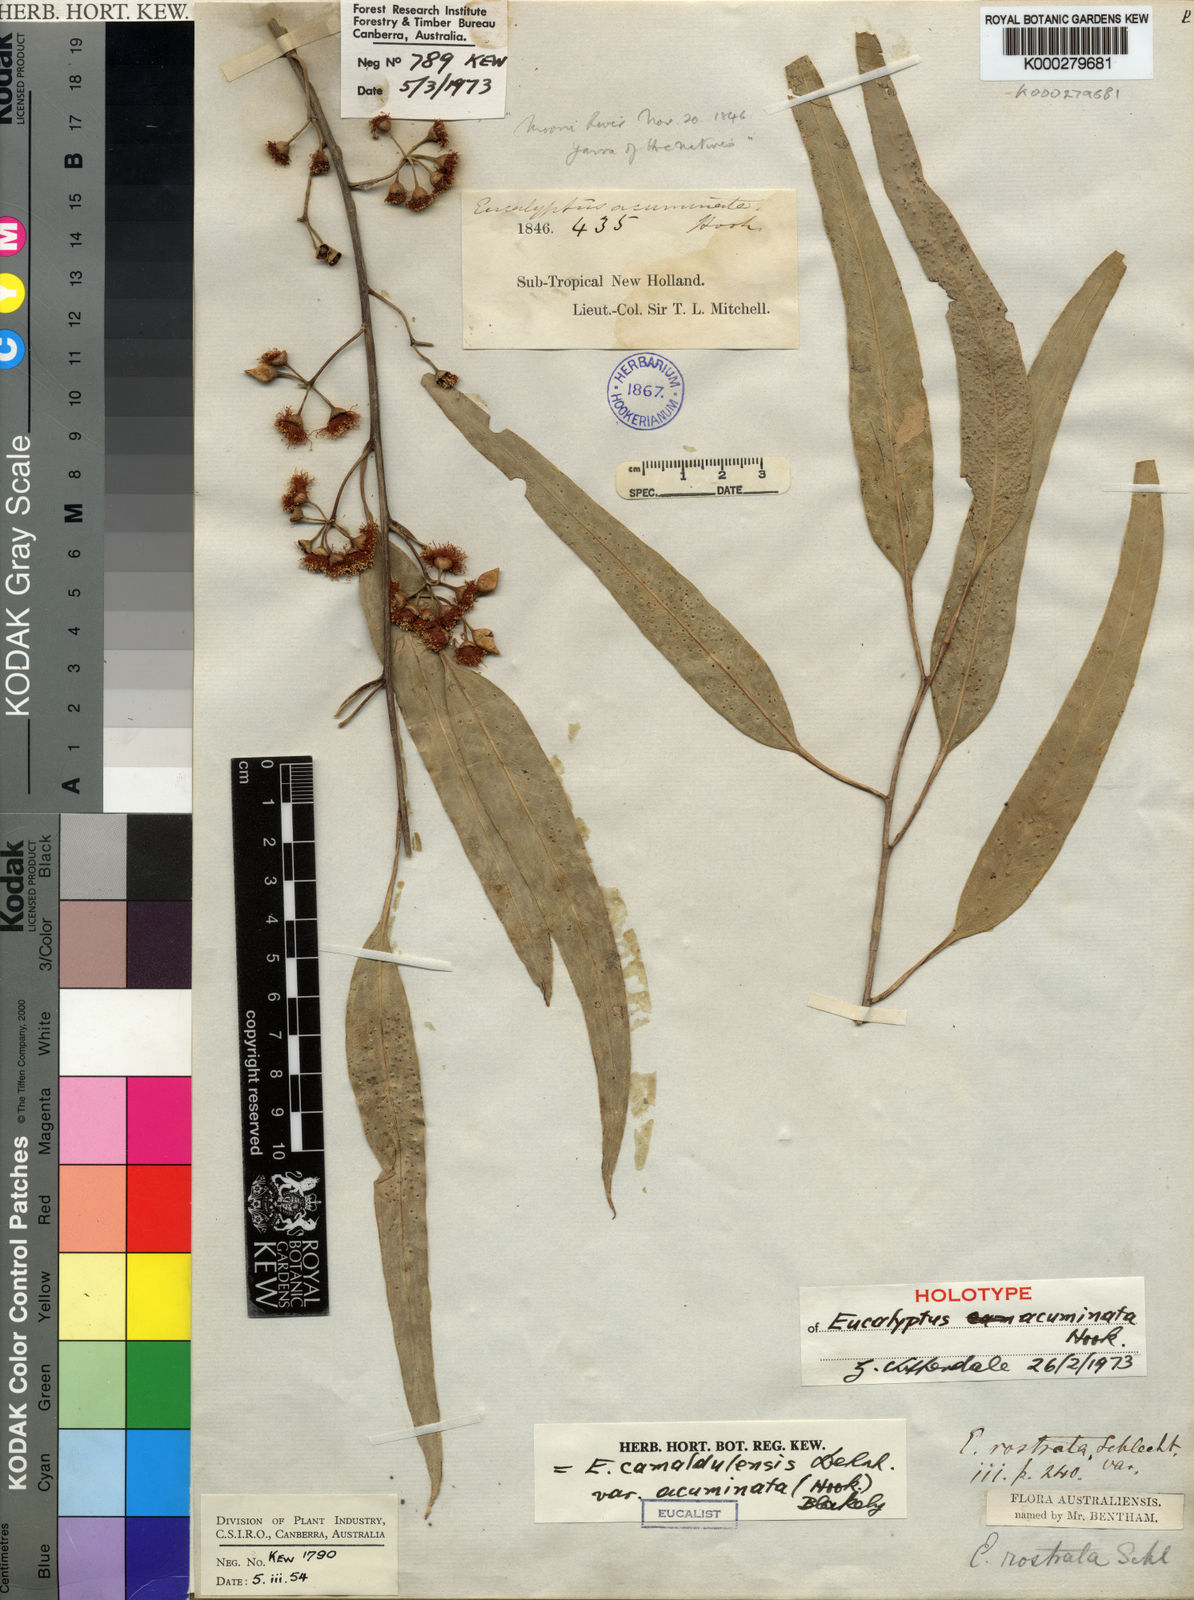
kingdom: Plantae
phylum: Tracheophyta
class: Magnoliopsida
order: Myrtales
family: Myrtaceae
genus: Eucalyptus
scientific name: Eucalyptus camaldulensis
